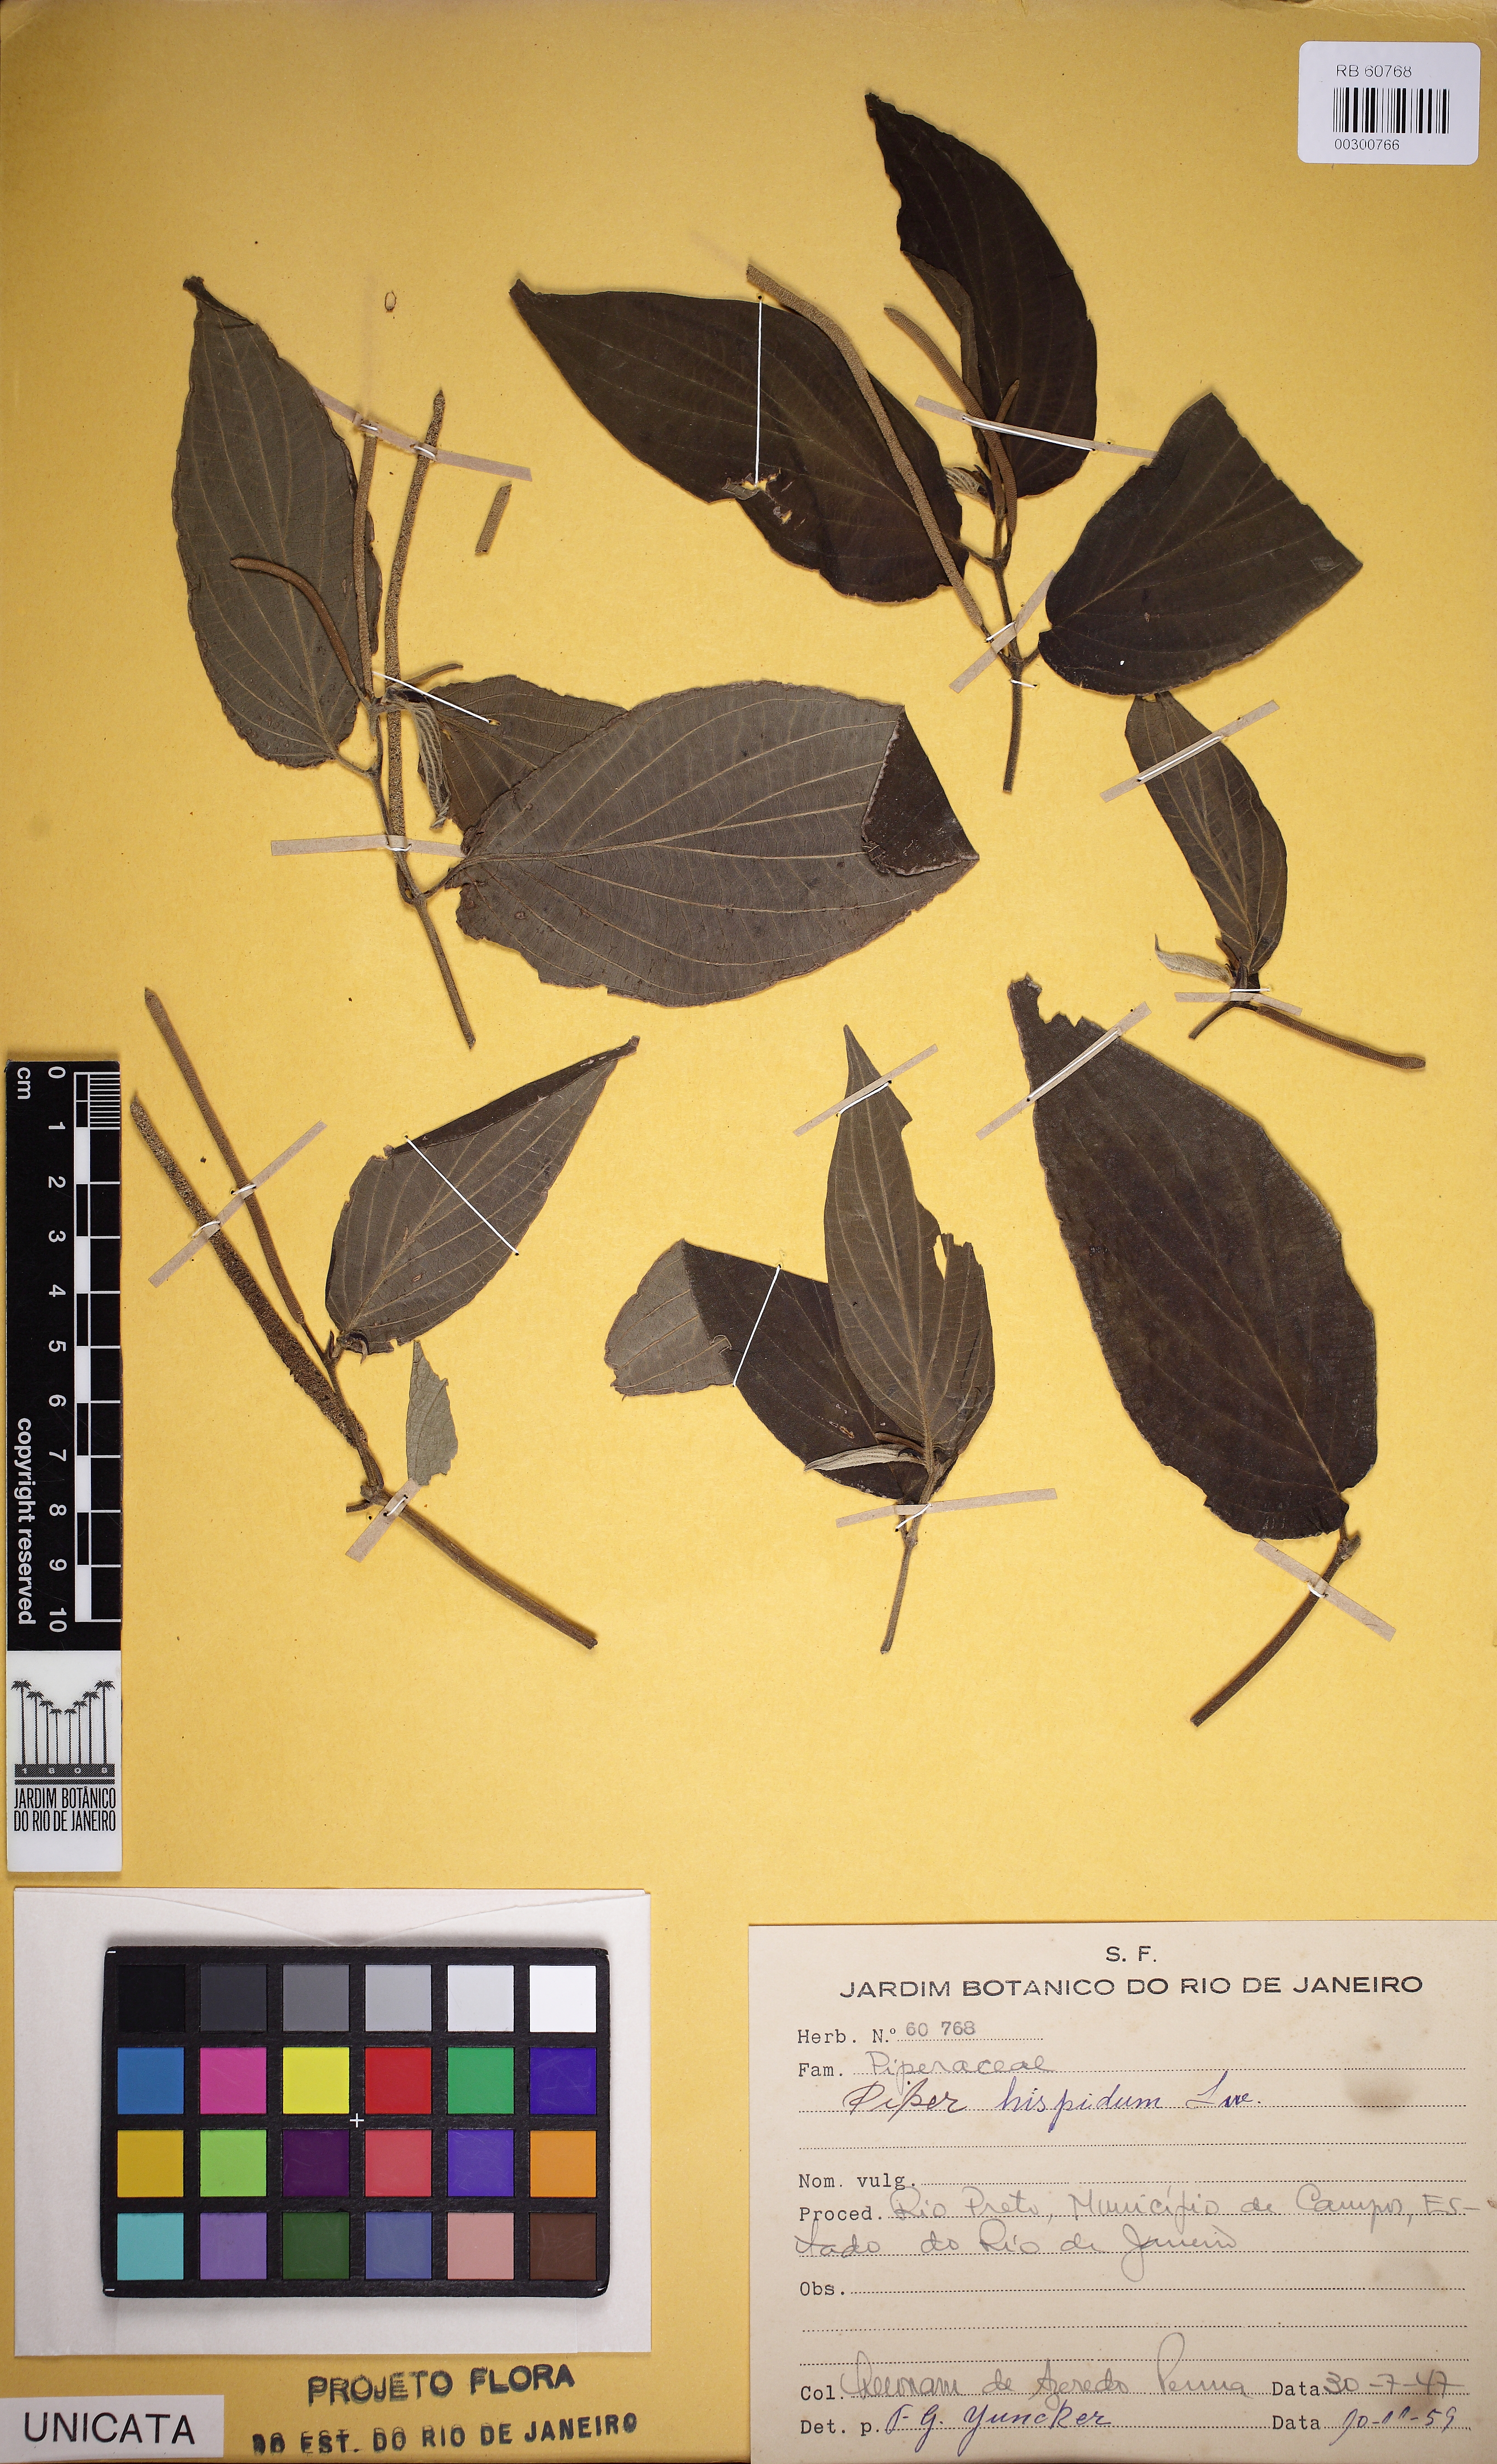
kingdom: Plantae
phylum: Tracheophyta
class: Magnoliopsida
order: Piperales
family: Piperaceae
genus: Piper
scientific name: Piper hispidum
